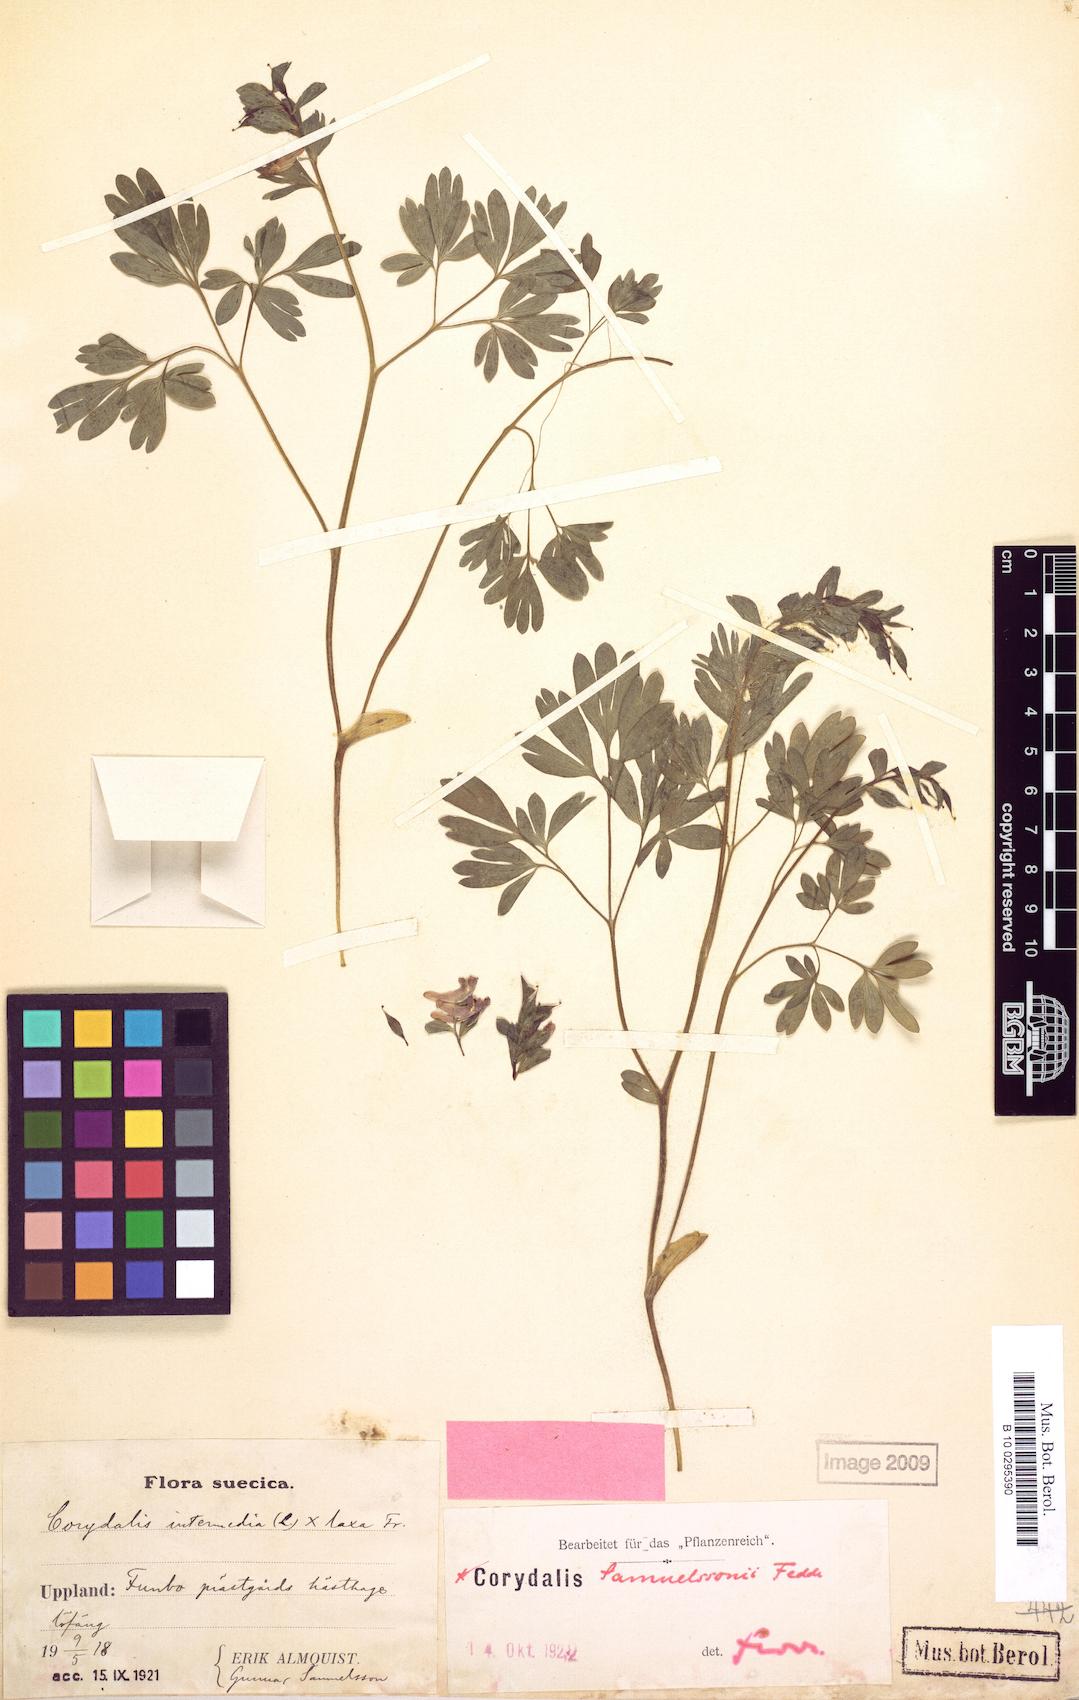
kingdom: Plantae
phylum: Tracheophyta
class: Magnoliopsida
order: Ranunculales
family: Papaveraceae
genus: Corydalis
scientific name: Corydalis laxa
